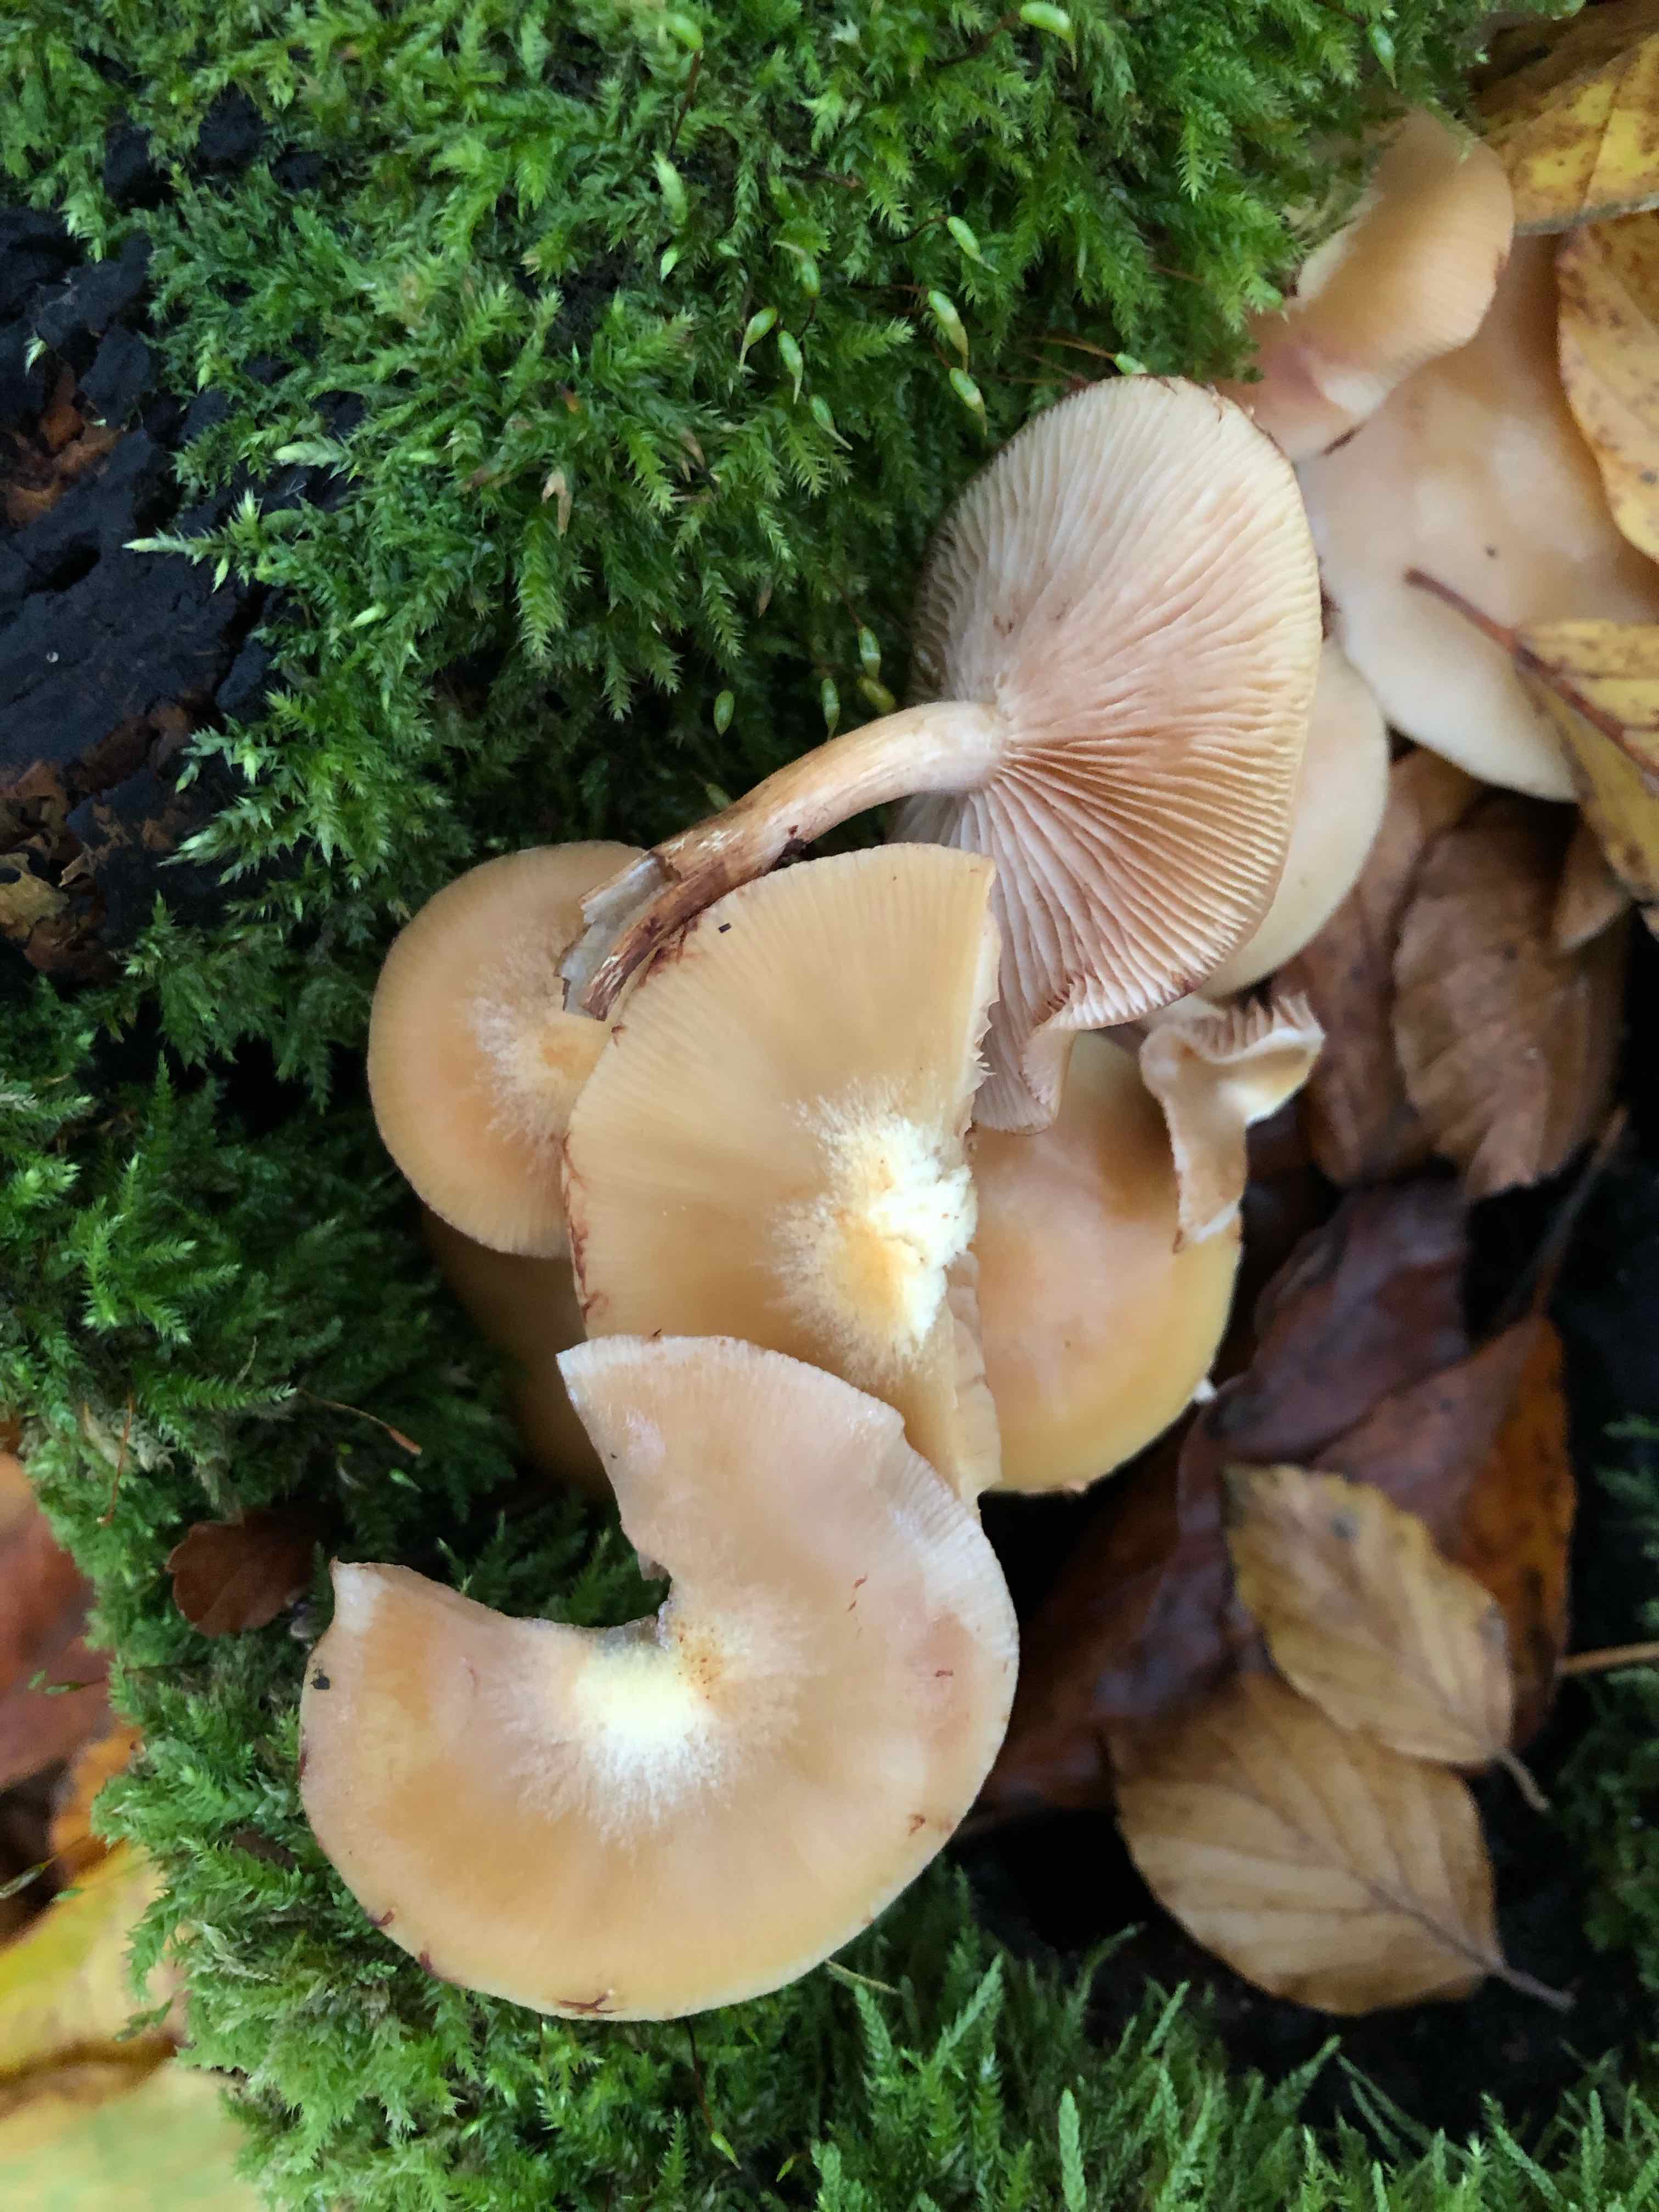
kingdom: Fungi
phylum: Basidiomycota
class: Agaricomycetes
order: Agaricales
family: Strophariaceae
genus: Kuehneromyces
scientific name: Kuehneromyces mutabilis
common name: foranderlig skælhat
